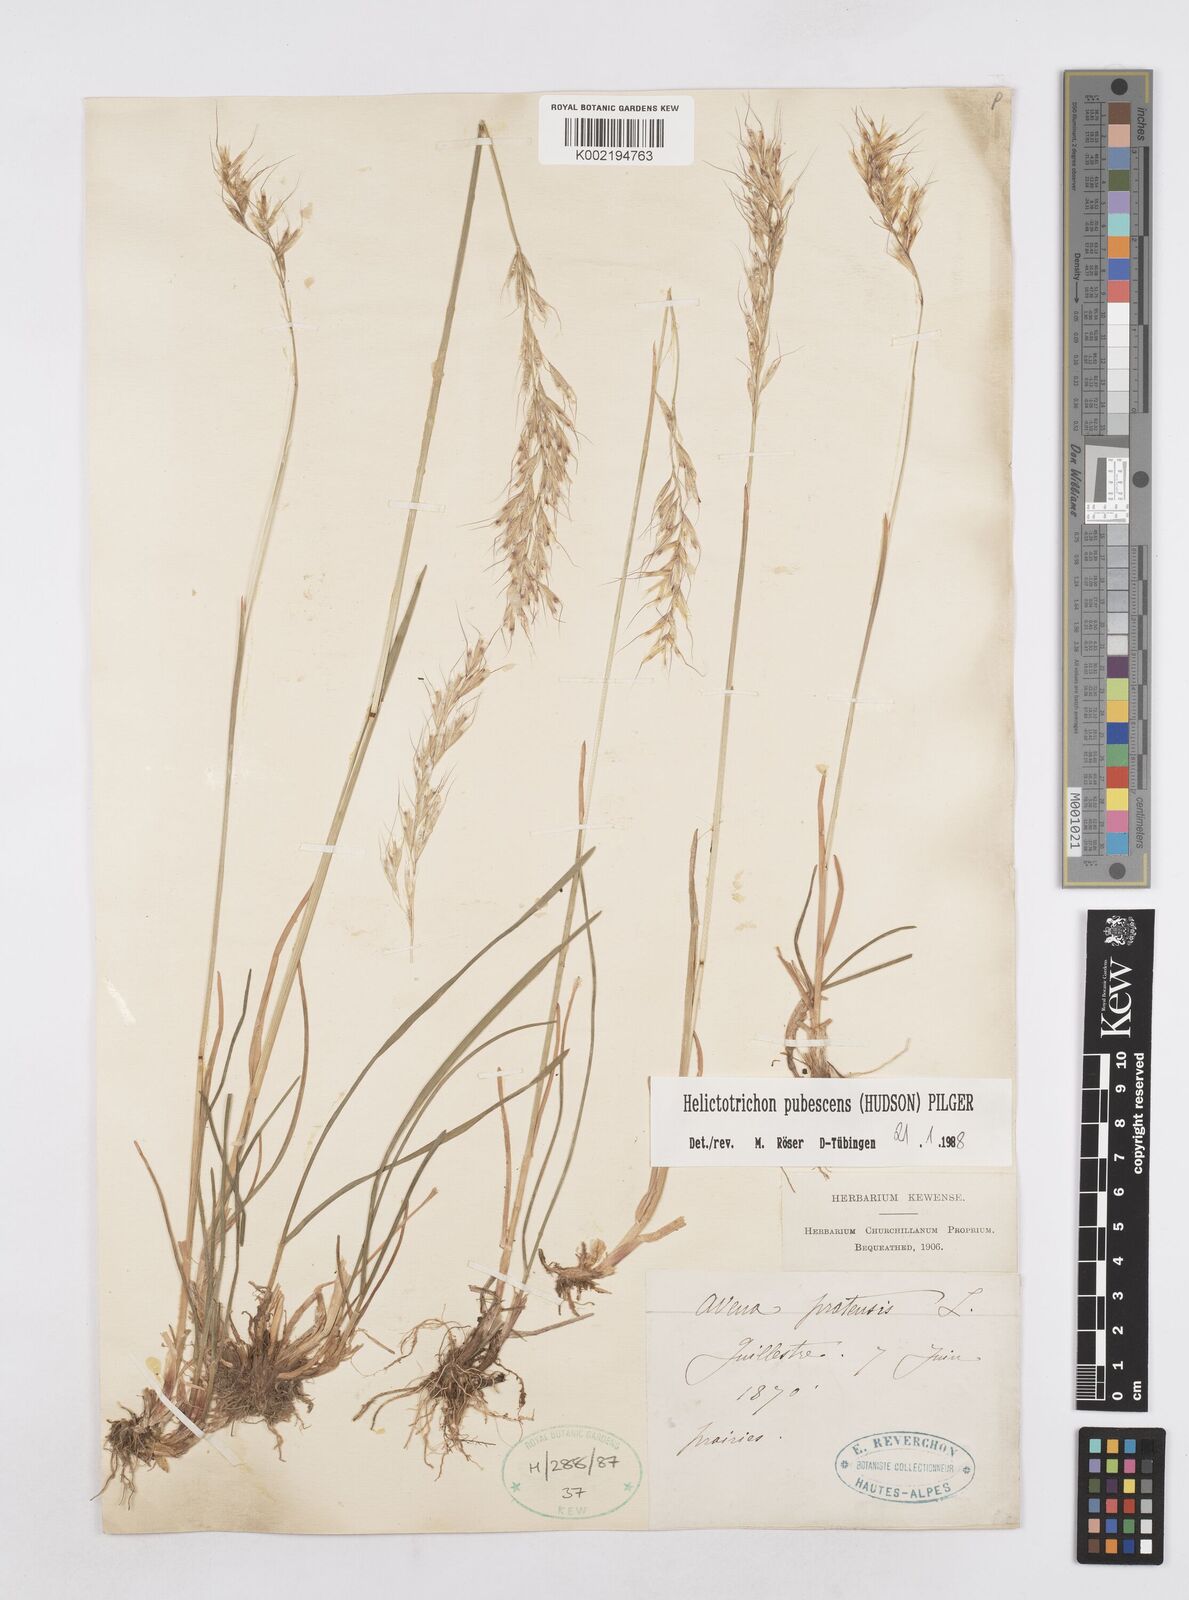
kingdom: Plantae
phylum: Tracheophyta
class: Liliopsida
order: Poales
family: Poaceae
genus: Avenula
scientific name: Avenula pubescens
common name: Downy alpine oatgrass
